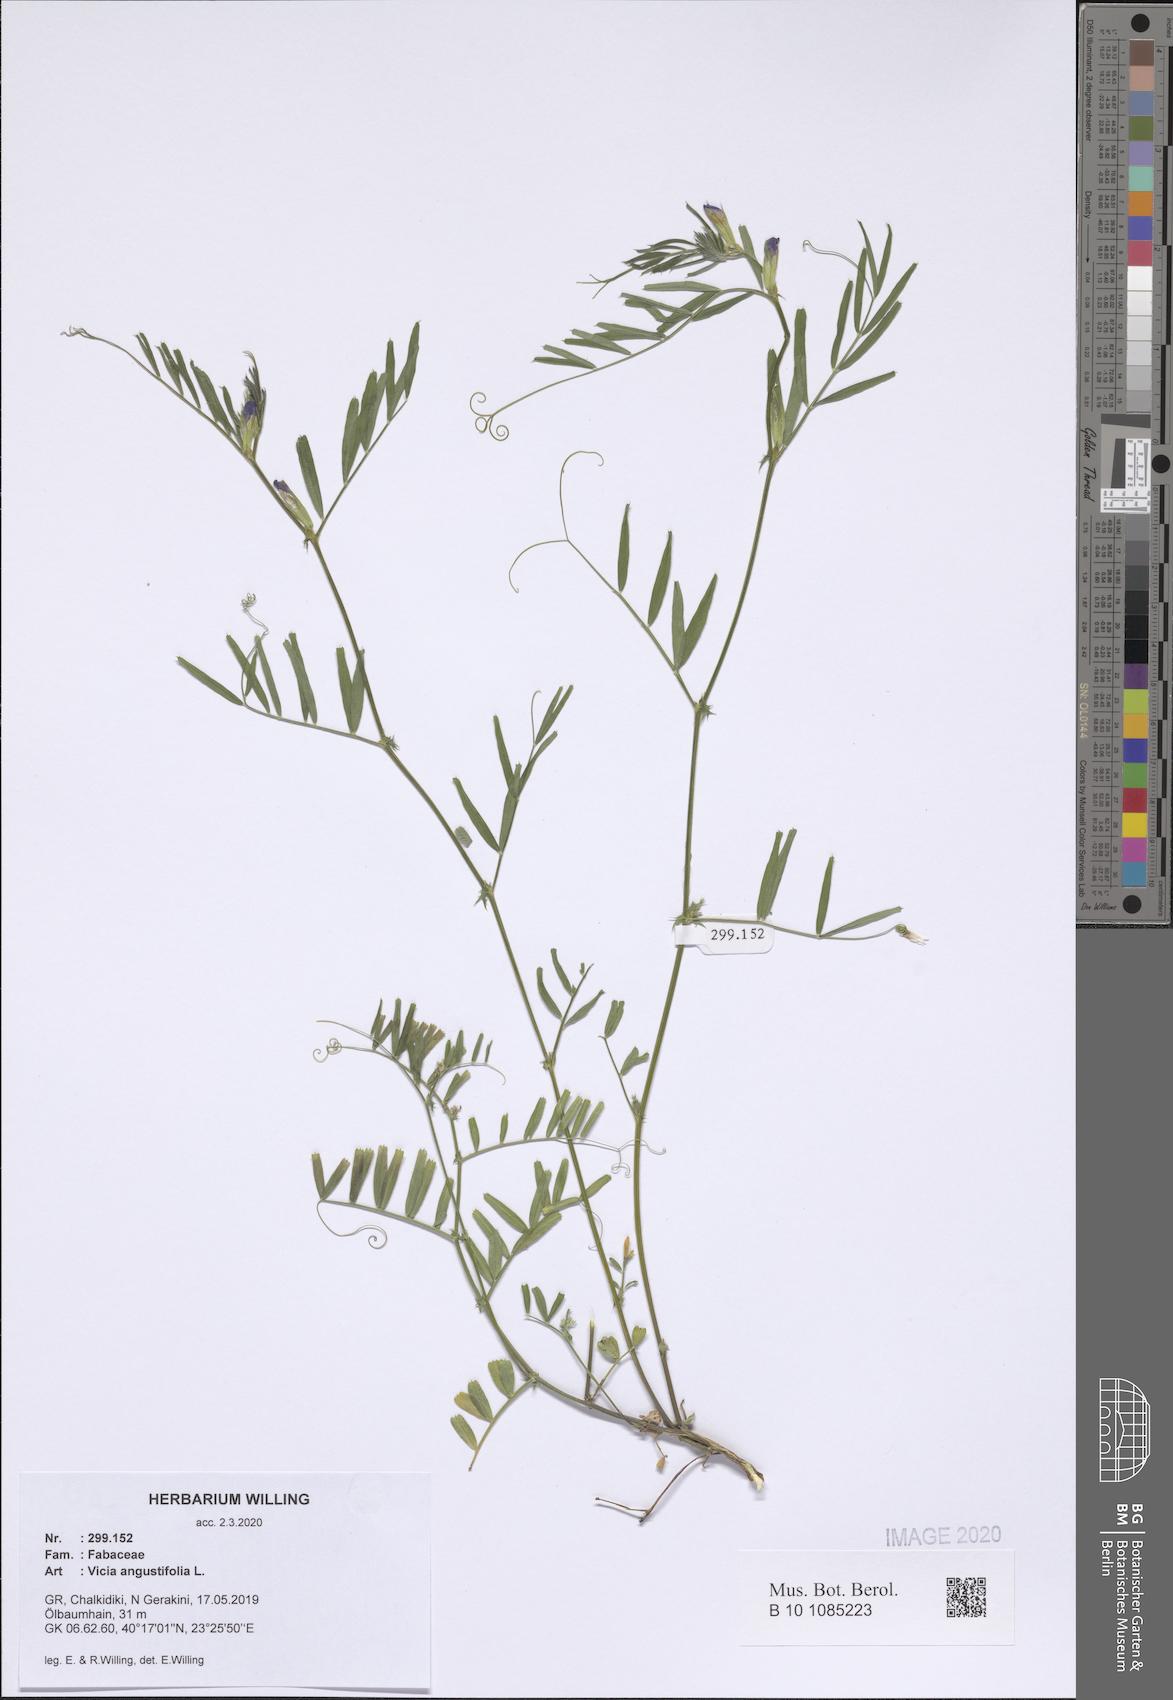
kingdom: Plantae
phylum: Tracheophyta
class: Magnoliopsida
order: Fabales
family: Fabaceae
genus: Vicia
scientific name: Vicia sativa
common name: Garden vetch
